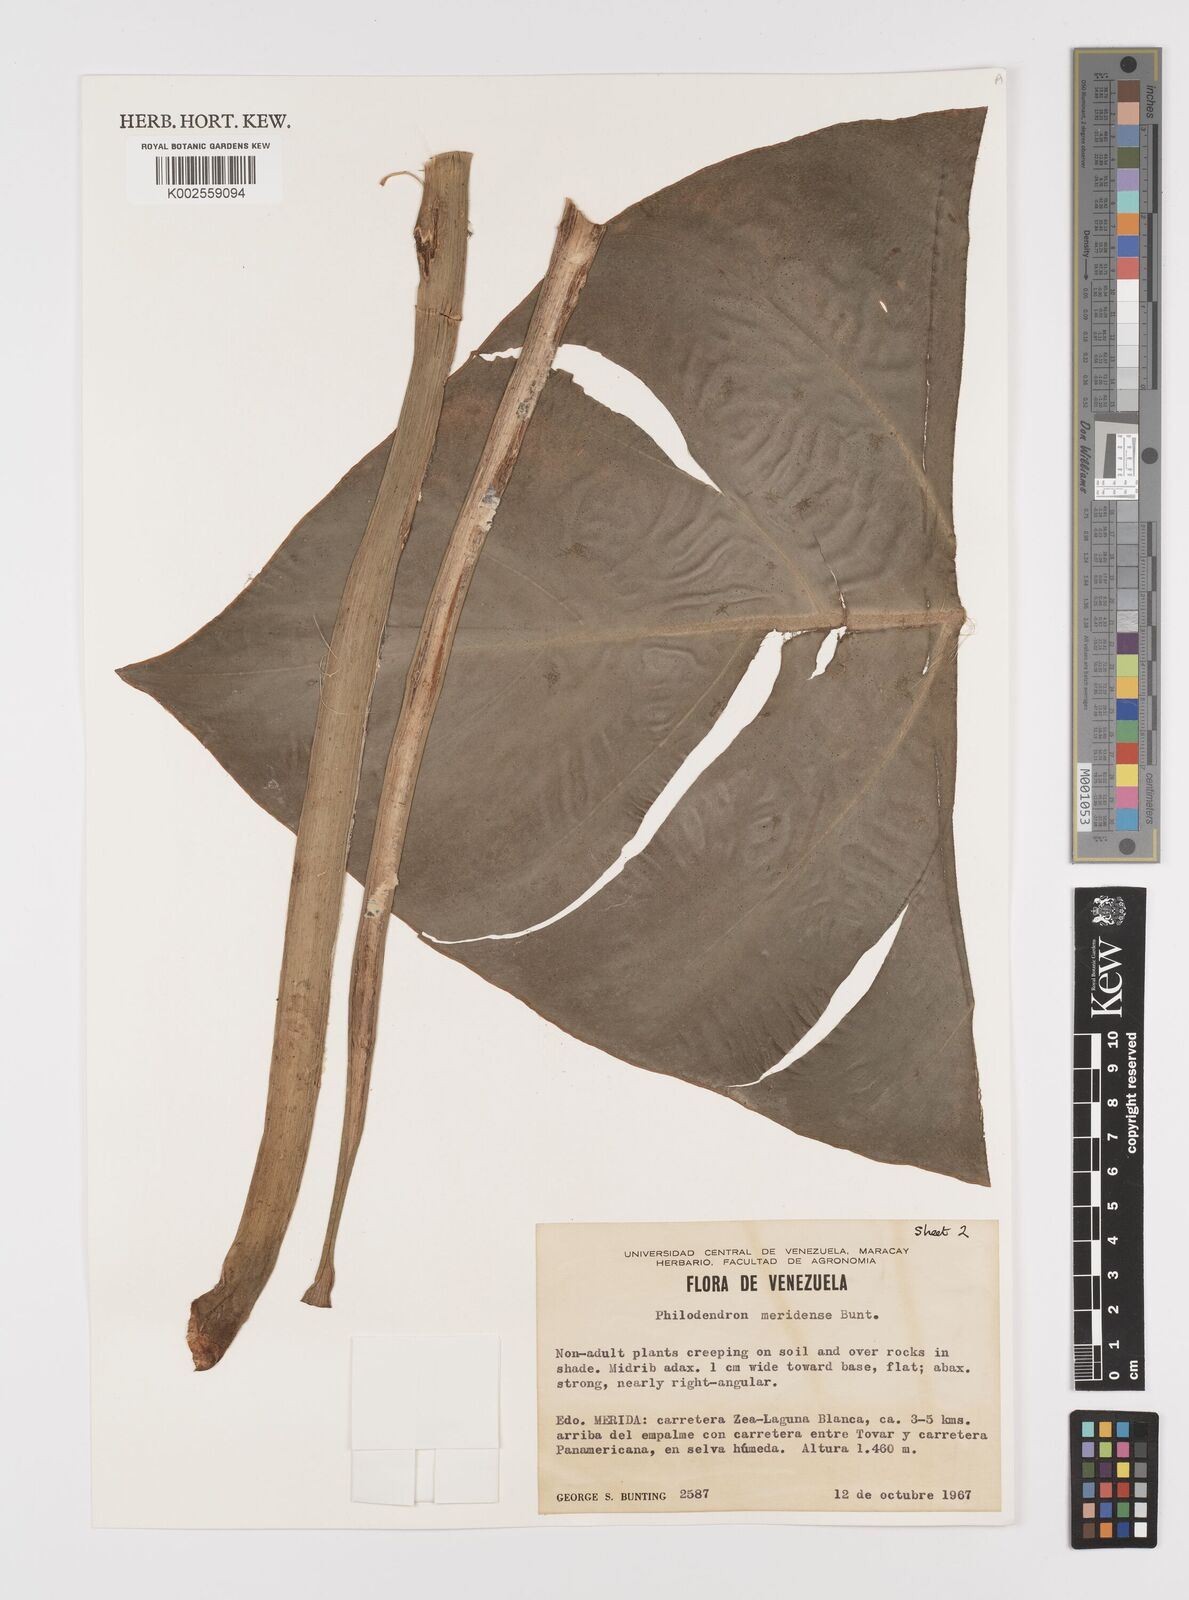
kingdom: Plantae
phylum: Tracheophyta
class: Liliopsida
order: Alismatales
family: Araceae
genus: Philodendron
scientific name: Philodendron meridense
